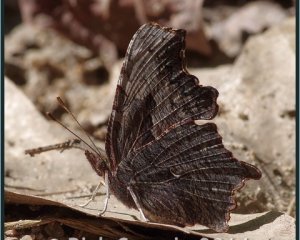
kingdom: Animalia
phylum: Arthropoda
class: Insecta
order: Lepidoptera
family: Nymphalidae
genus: Polygonia
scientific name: Polygonia progne
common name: Gray Comma
